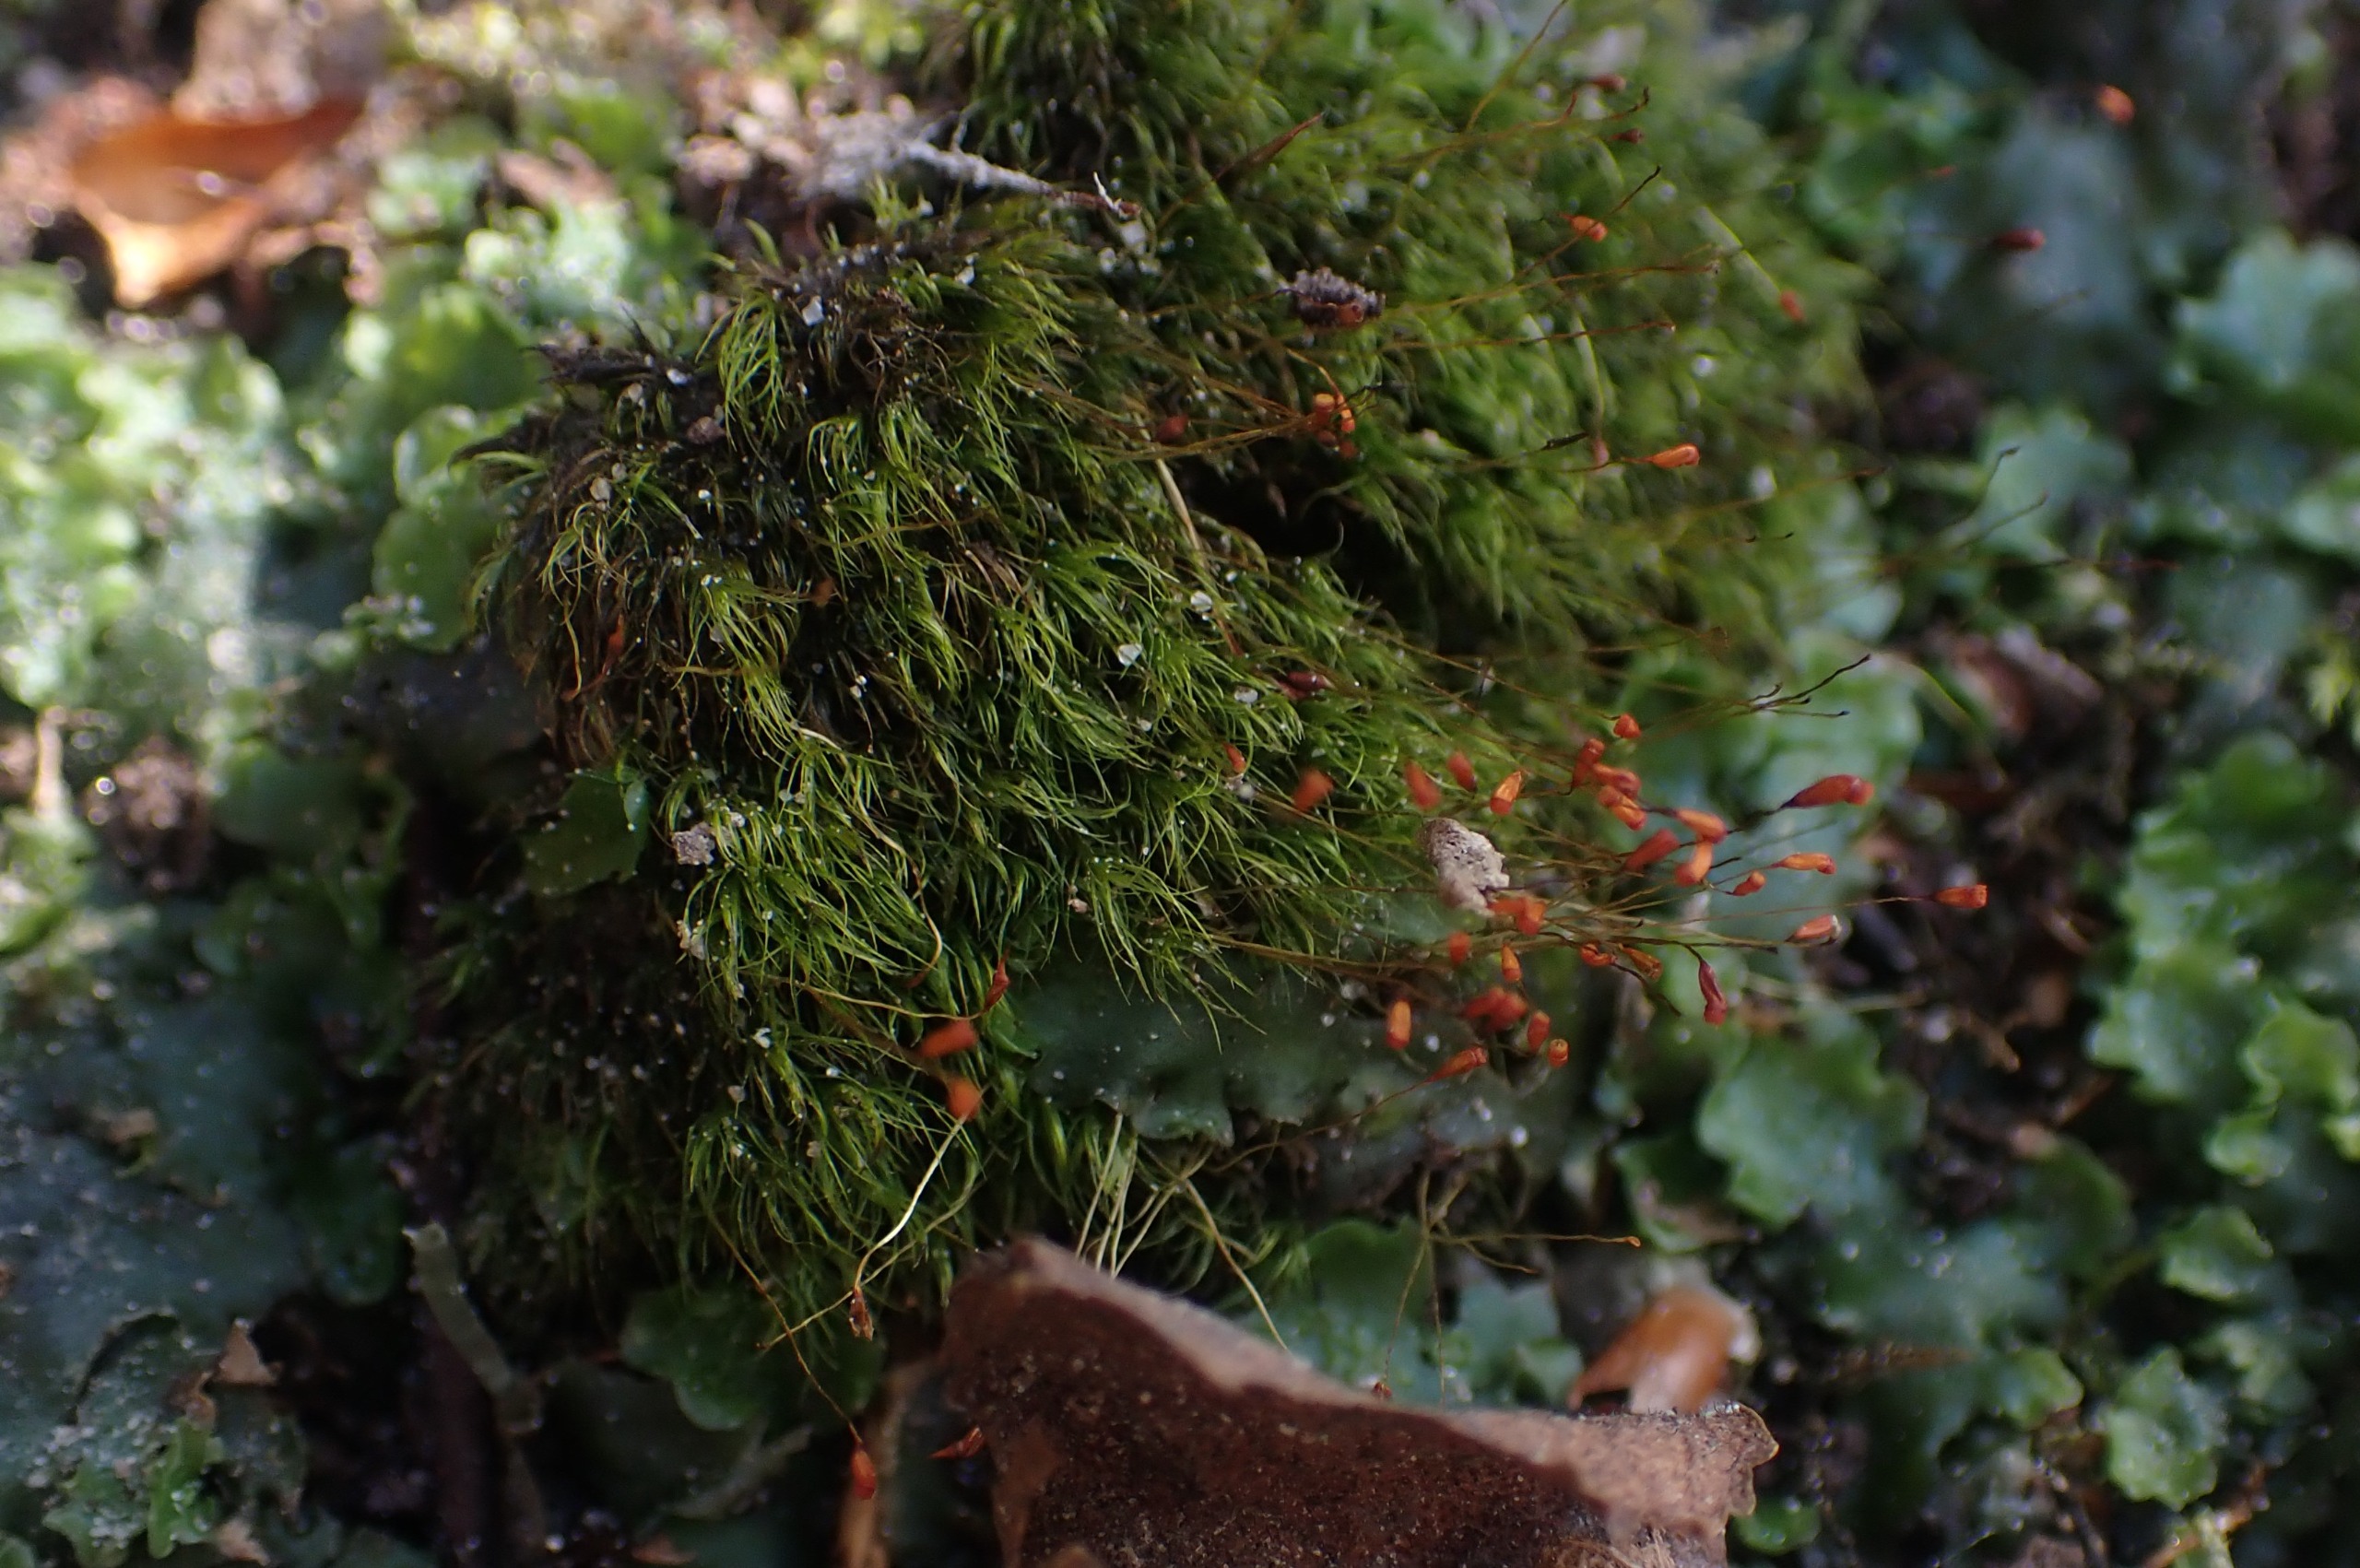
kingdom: Plantae
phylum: Bryophyta
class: Bryopsida
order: Dicranales
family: Dicranellaceae
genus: Dicranella
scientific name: Dicranella heteromalla
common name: Almindelig fløjlsmos
